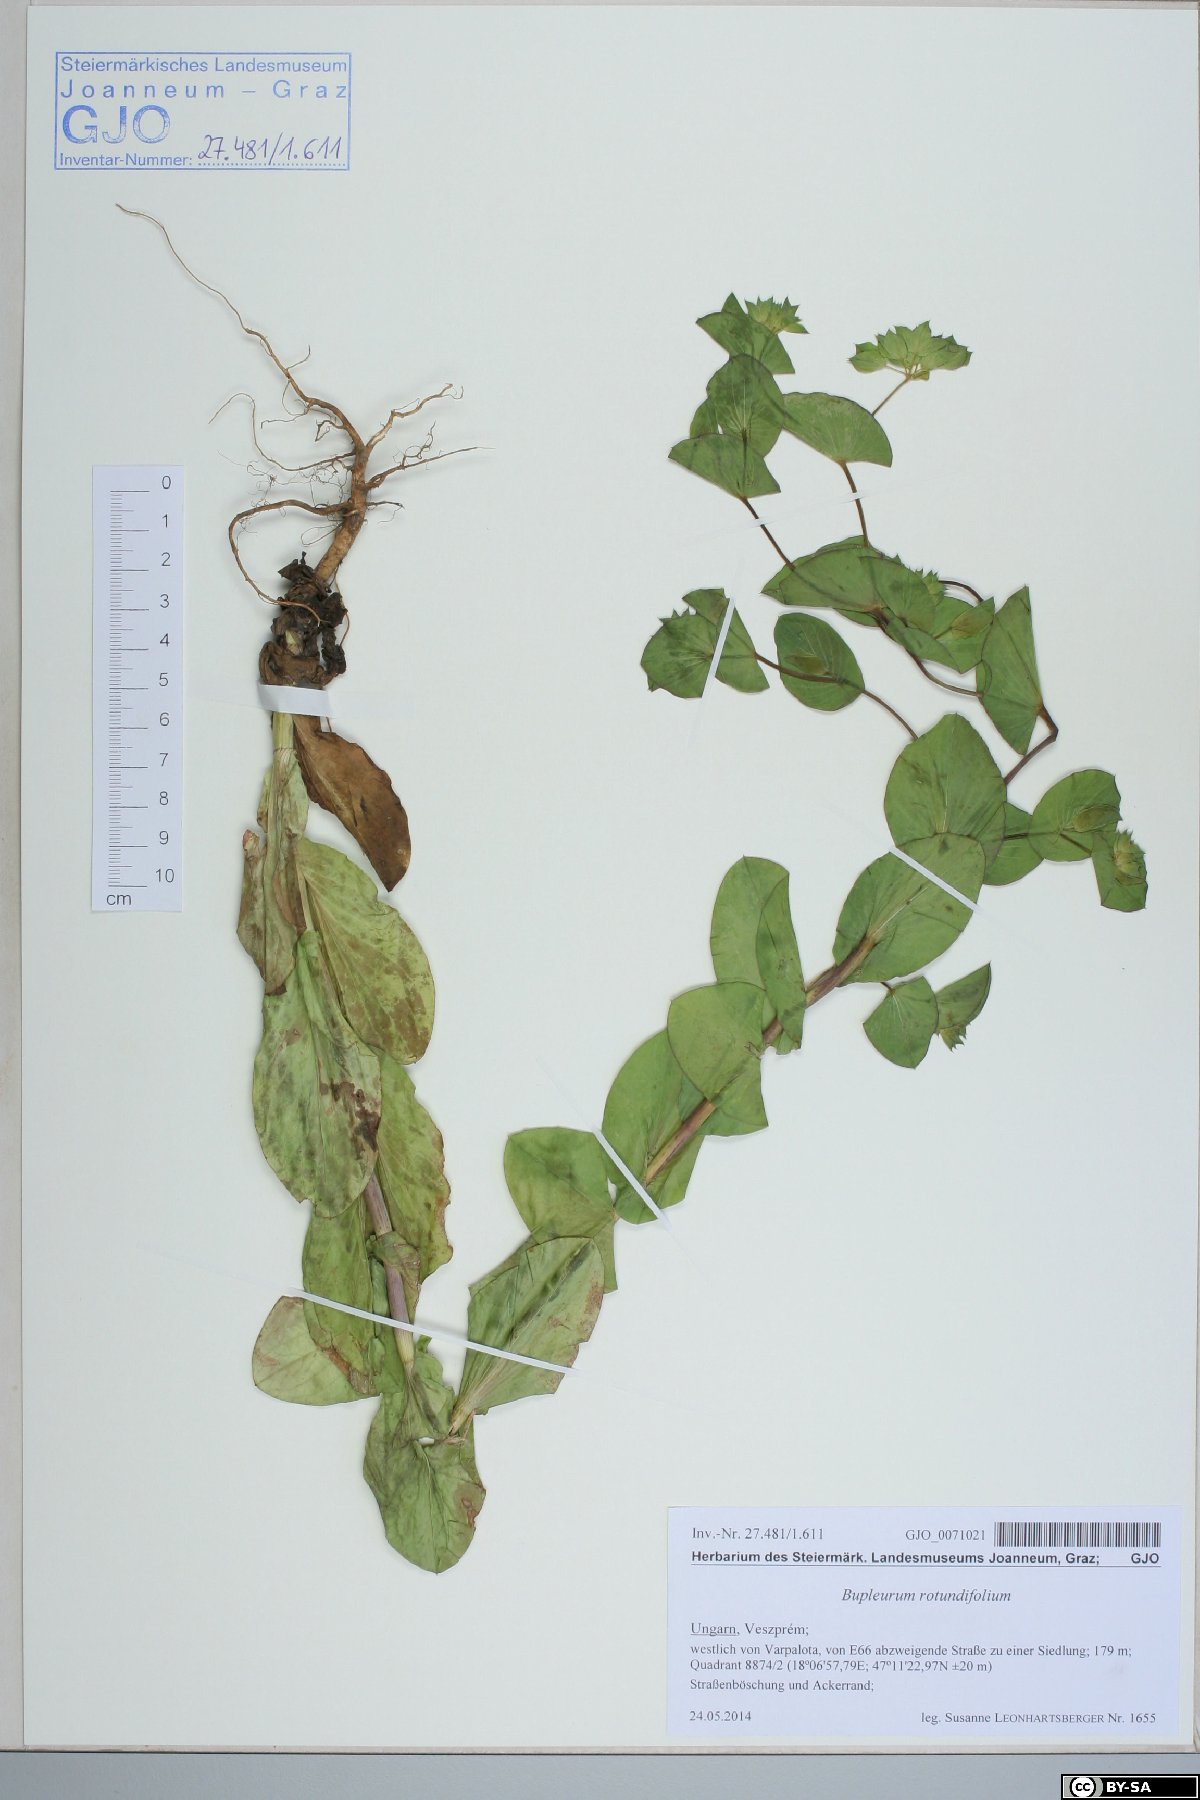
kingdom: Plantae
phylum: Tracheophyta
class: Magnoliopsida
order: Apiales
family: Apiaceae
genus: Bupleurum
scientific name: Bupleurum rotundifolium
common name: Thorow-wax
